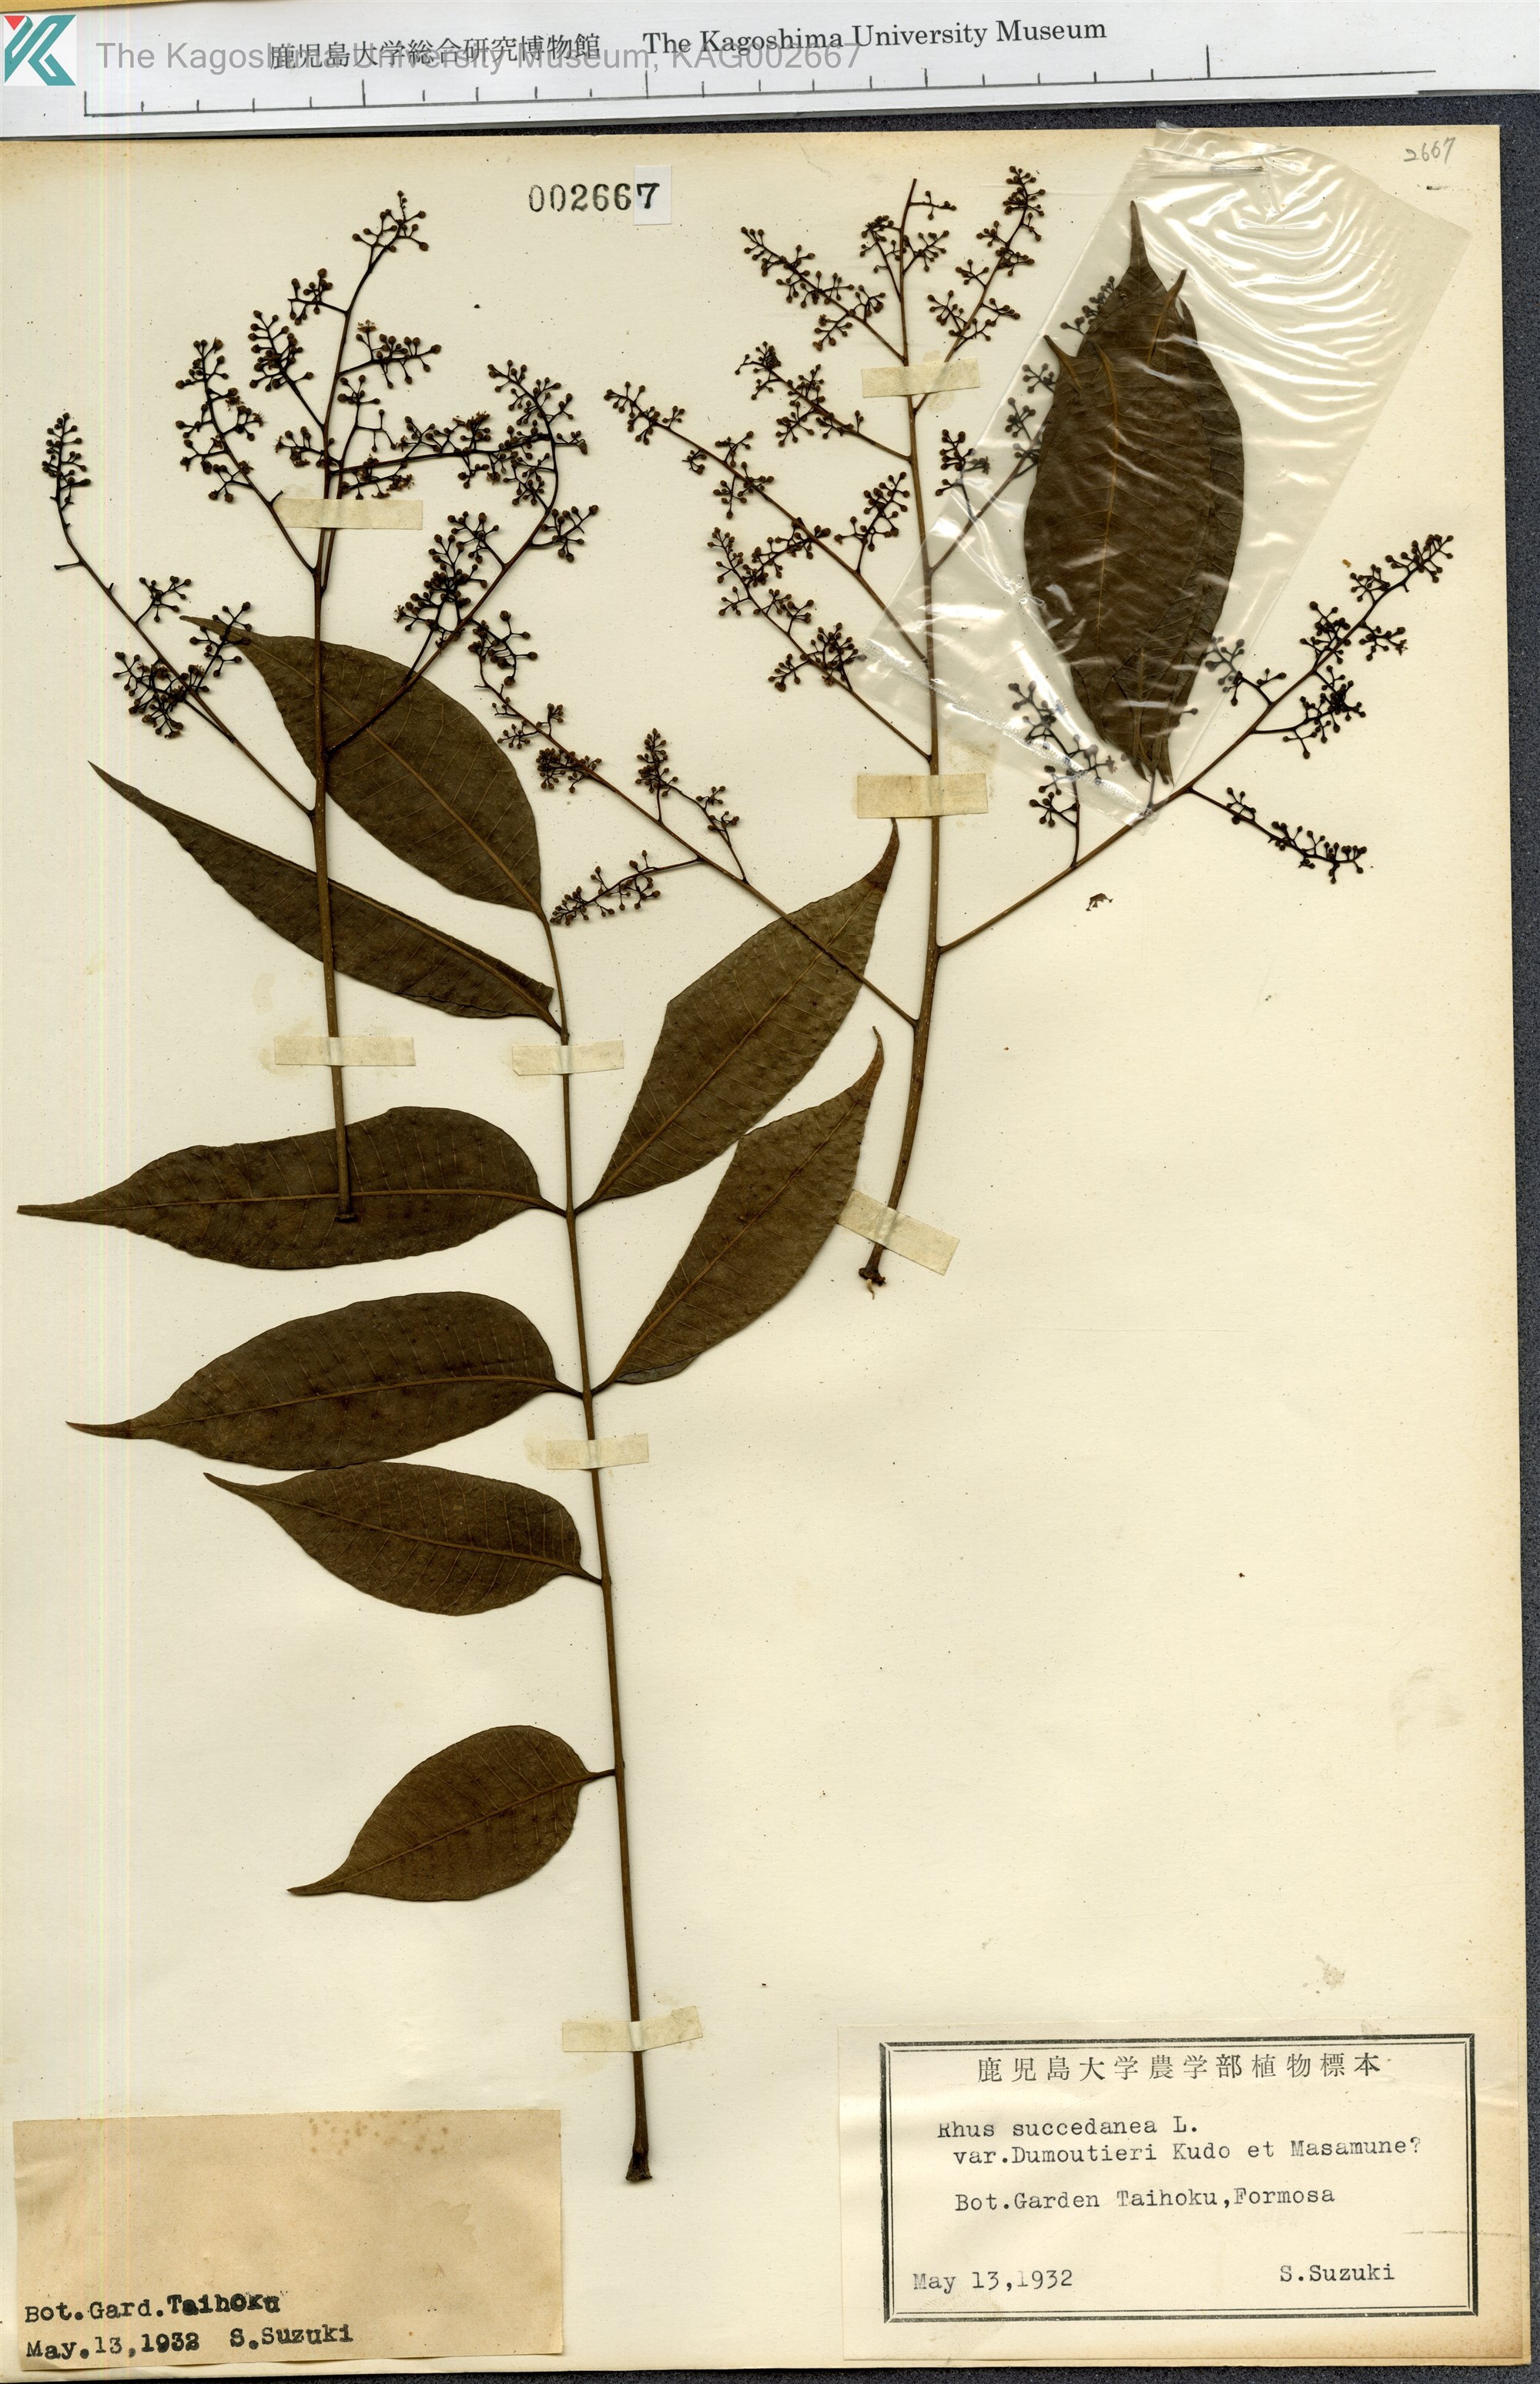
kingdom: Plantae
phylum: Tracheophyta
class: Magnoliopsida
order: Sapindales
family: Anacardiaceae
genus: Toxicodendron
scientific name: Toxicodendron succedaneum
